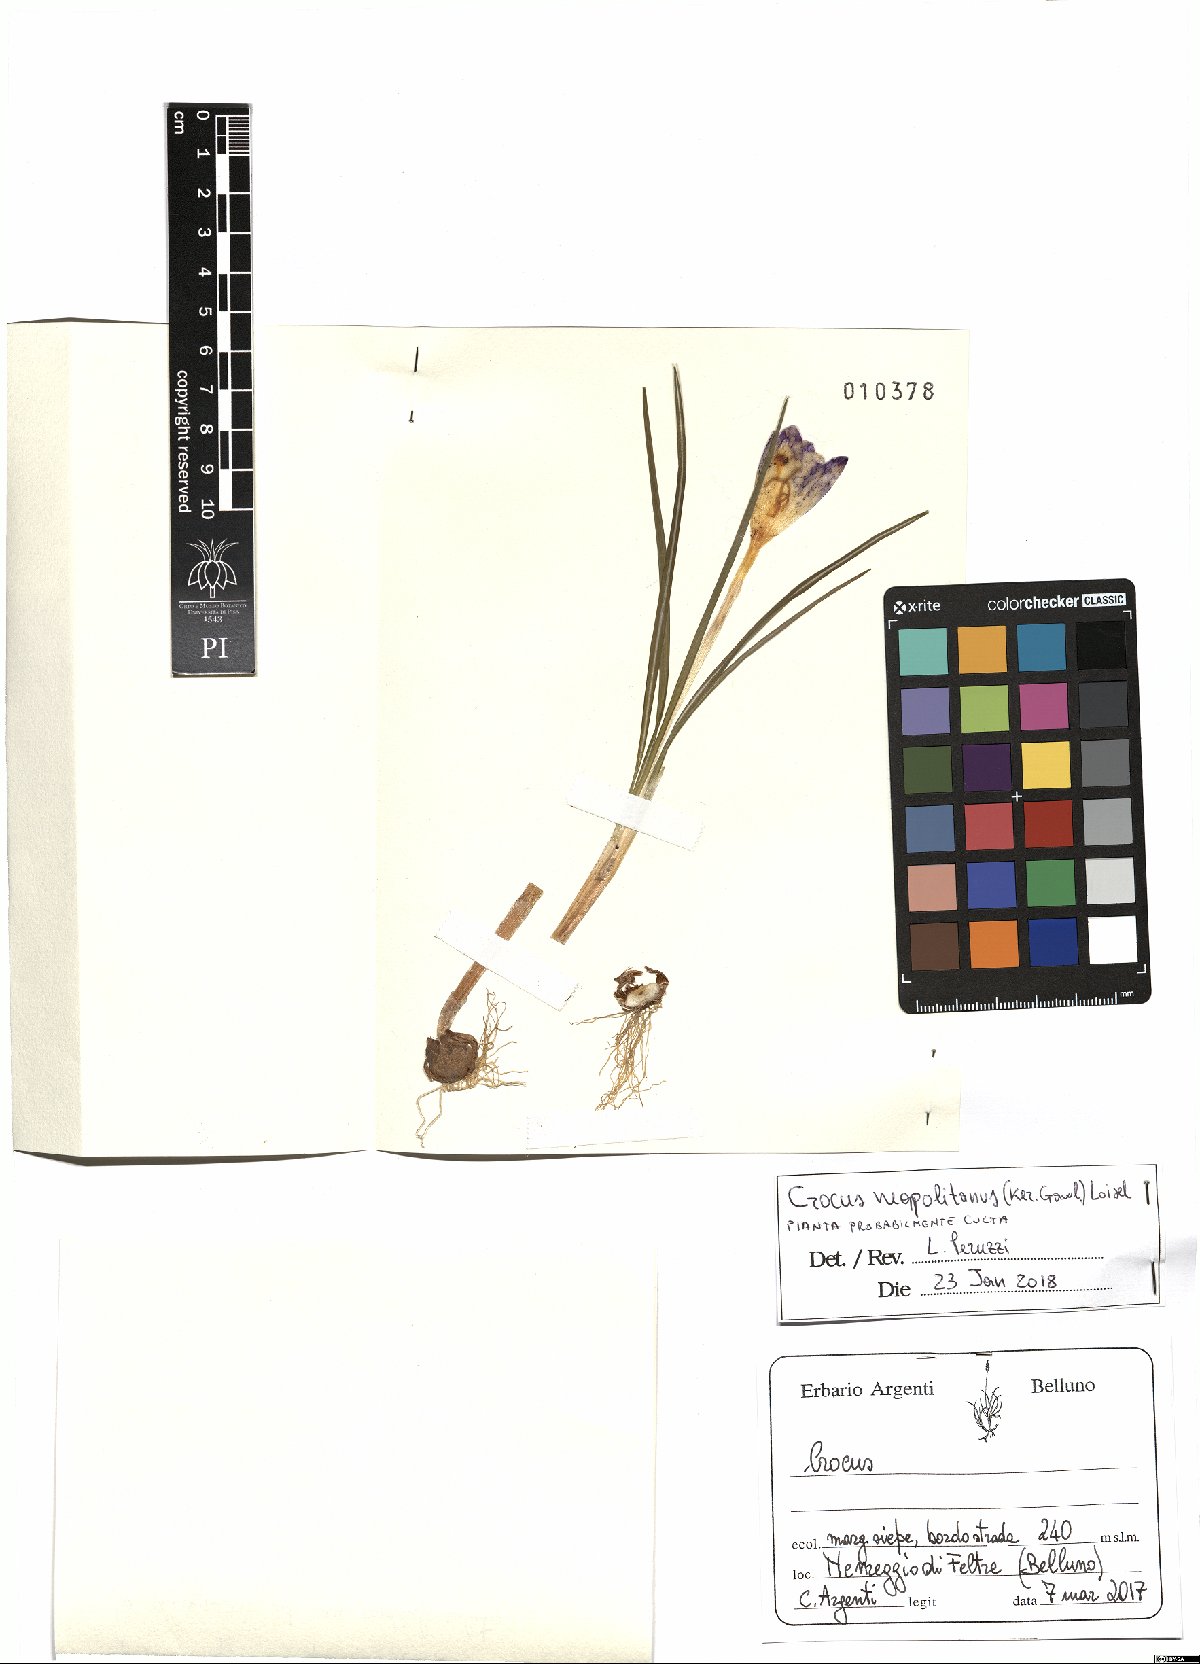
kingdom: Plantae
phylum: Tracheophyta
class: Liliopsida
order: Asparagales
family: Iridaceae
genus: Crocus
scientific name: Crocus neapolitanus
